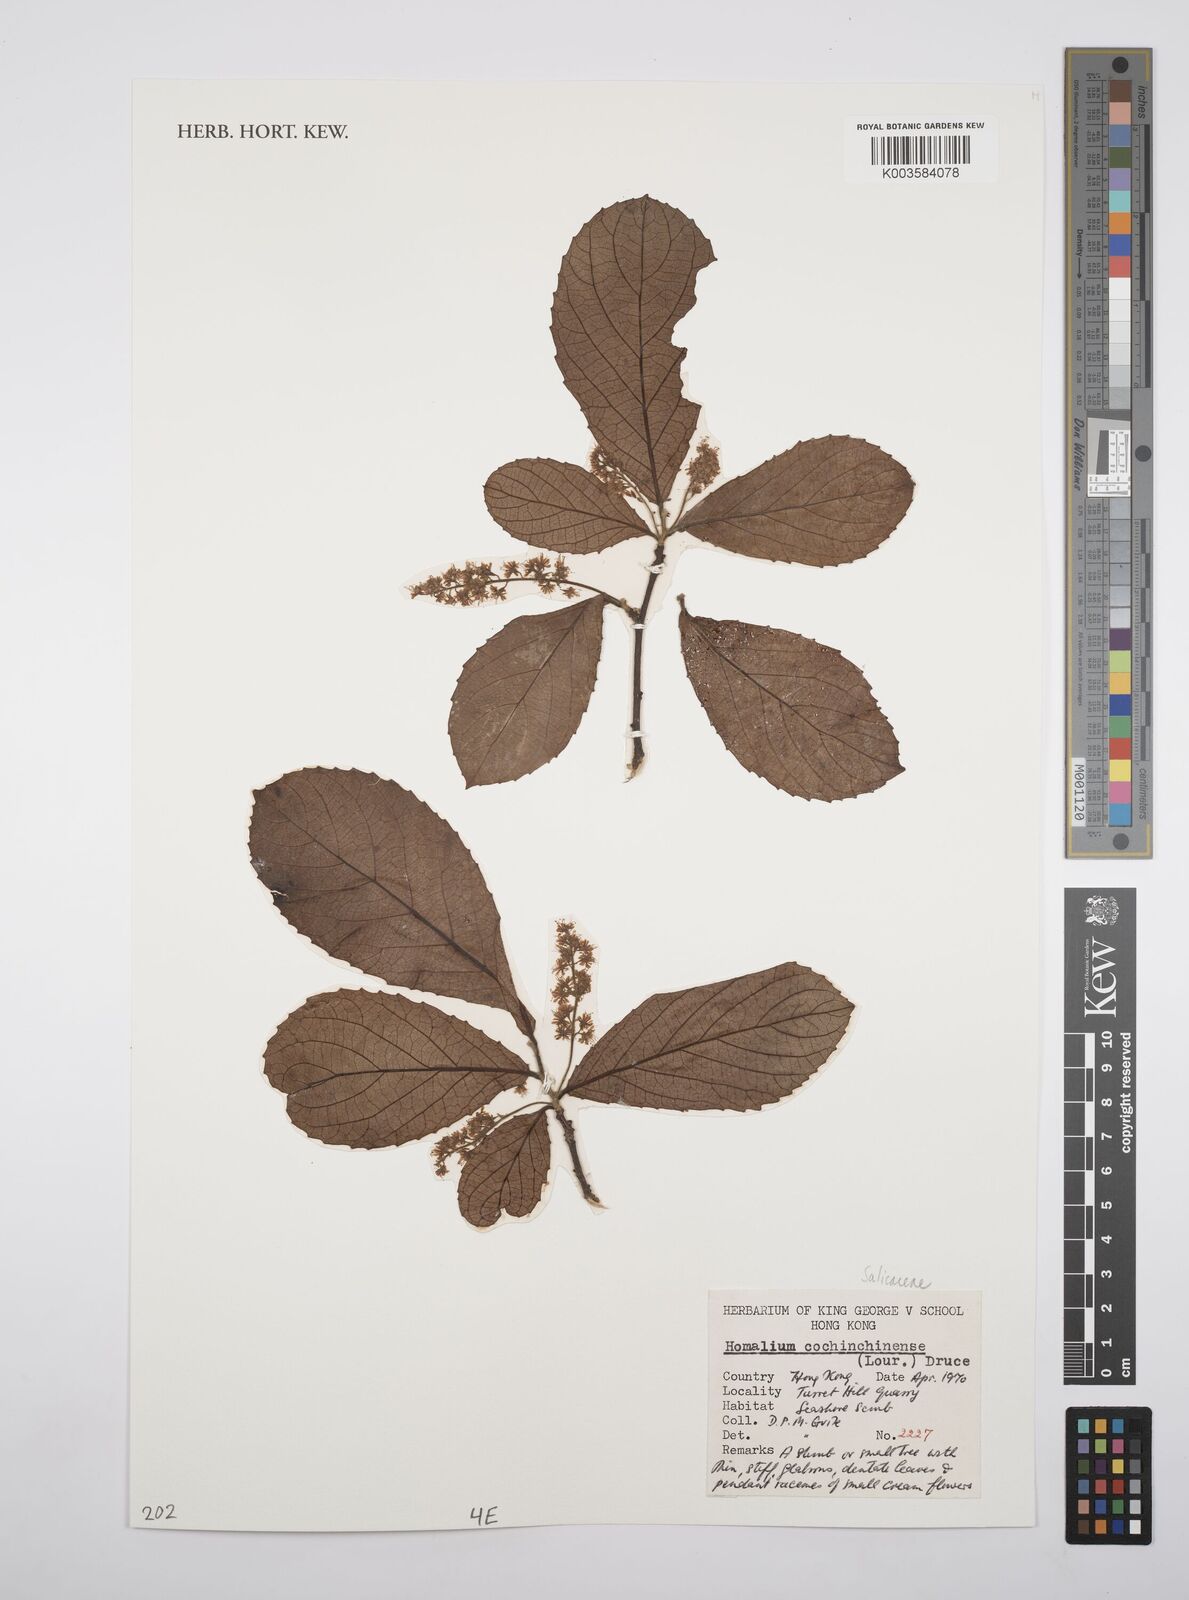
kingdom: Plantae
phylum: Tracheophyta
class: Magnoliopsida
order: Malpighiales
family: Salicaceae
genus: Homalium
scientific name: Homalium cochinchinensis
